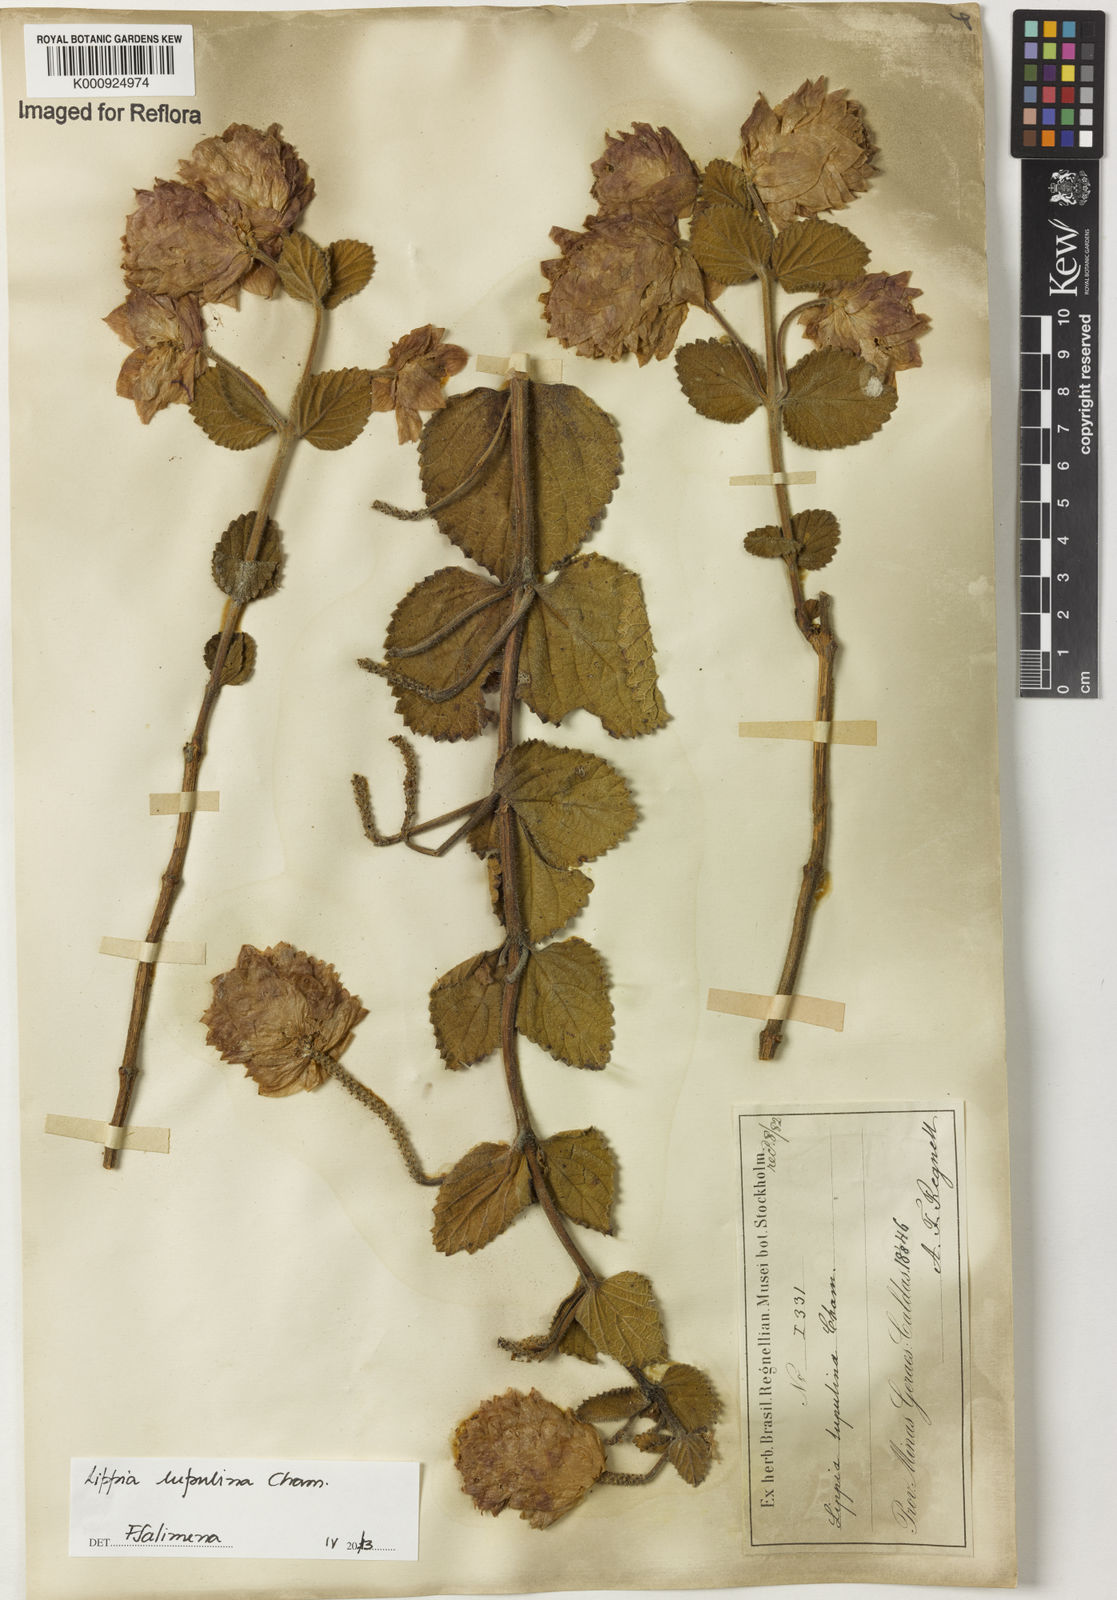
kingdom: Plantae
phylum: Tracheophyta
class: Magnoliopsida
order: Lamiales
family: Verbenaceae
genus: Lippia
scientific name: Lippia lupulina
